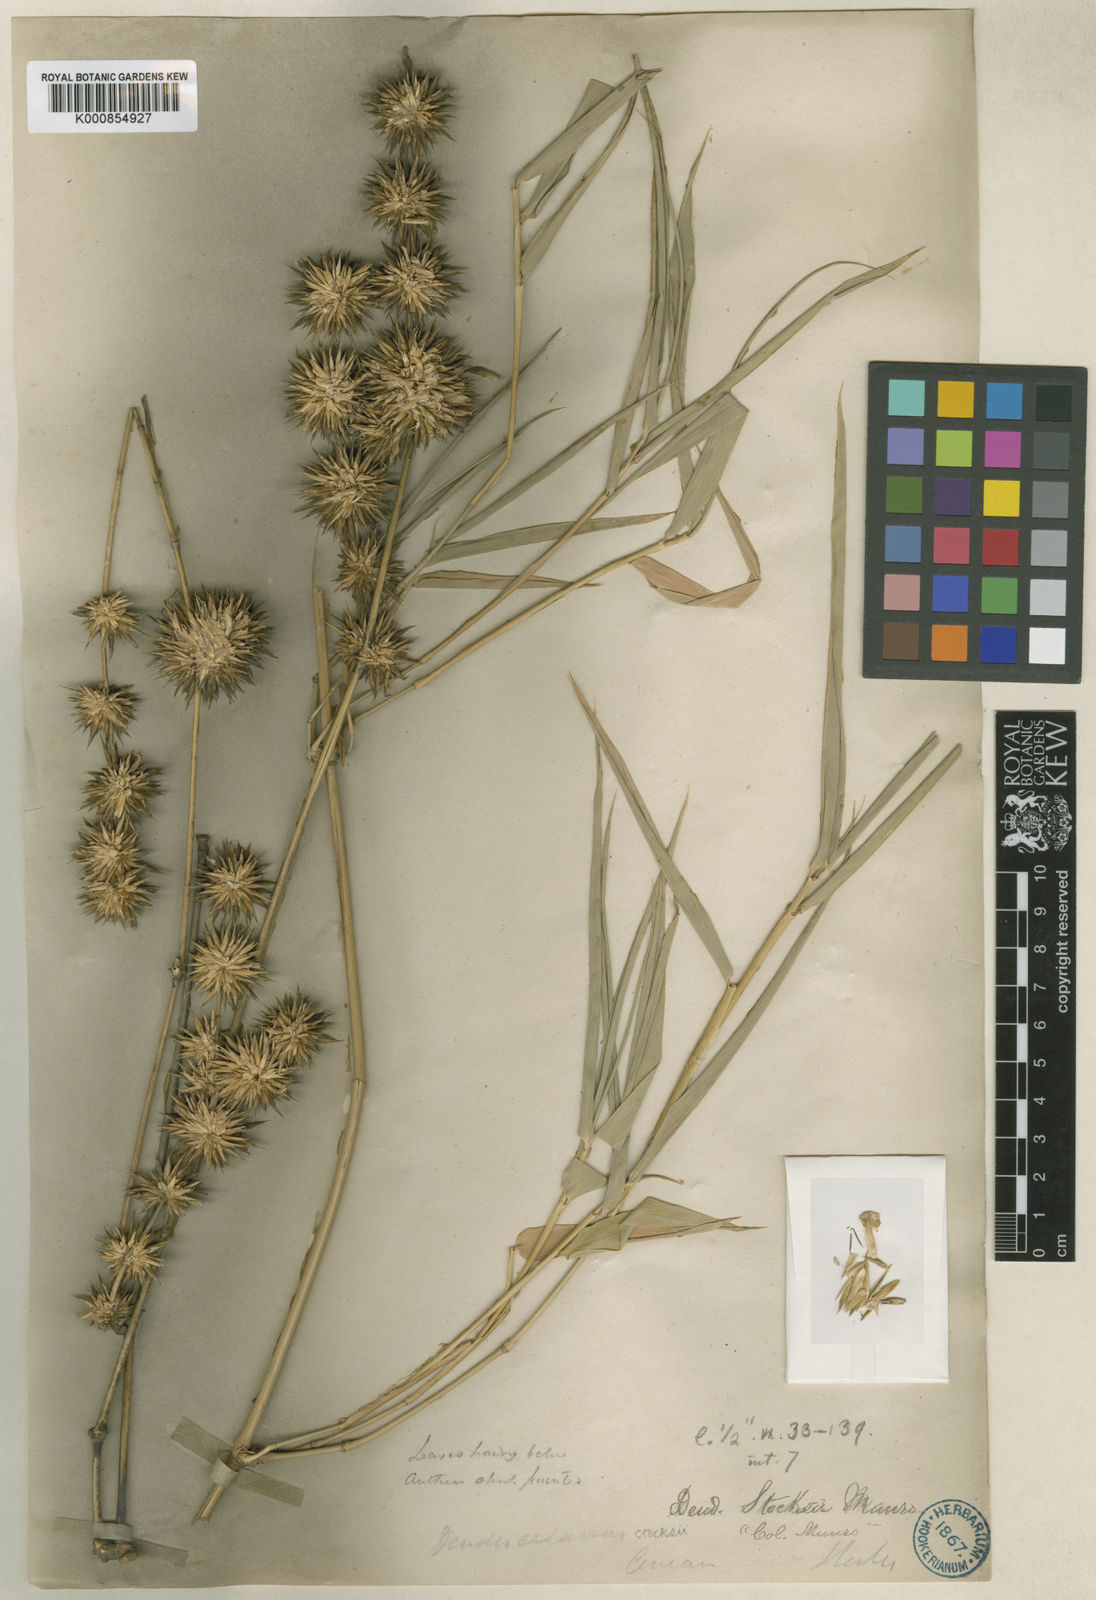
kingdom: Plantae
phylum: Tracheophyta
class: Liliopsida
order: Poales
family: Poaceae
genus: Dendrocalamus
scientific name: Dendrocalamus giganteus
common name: Giant bamboo
